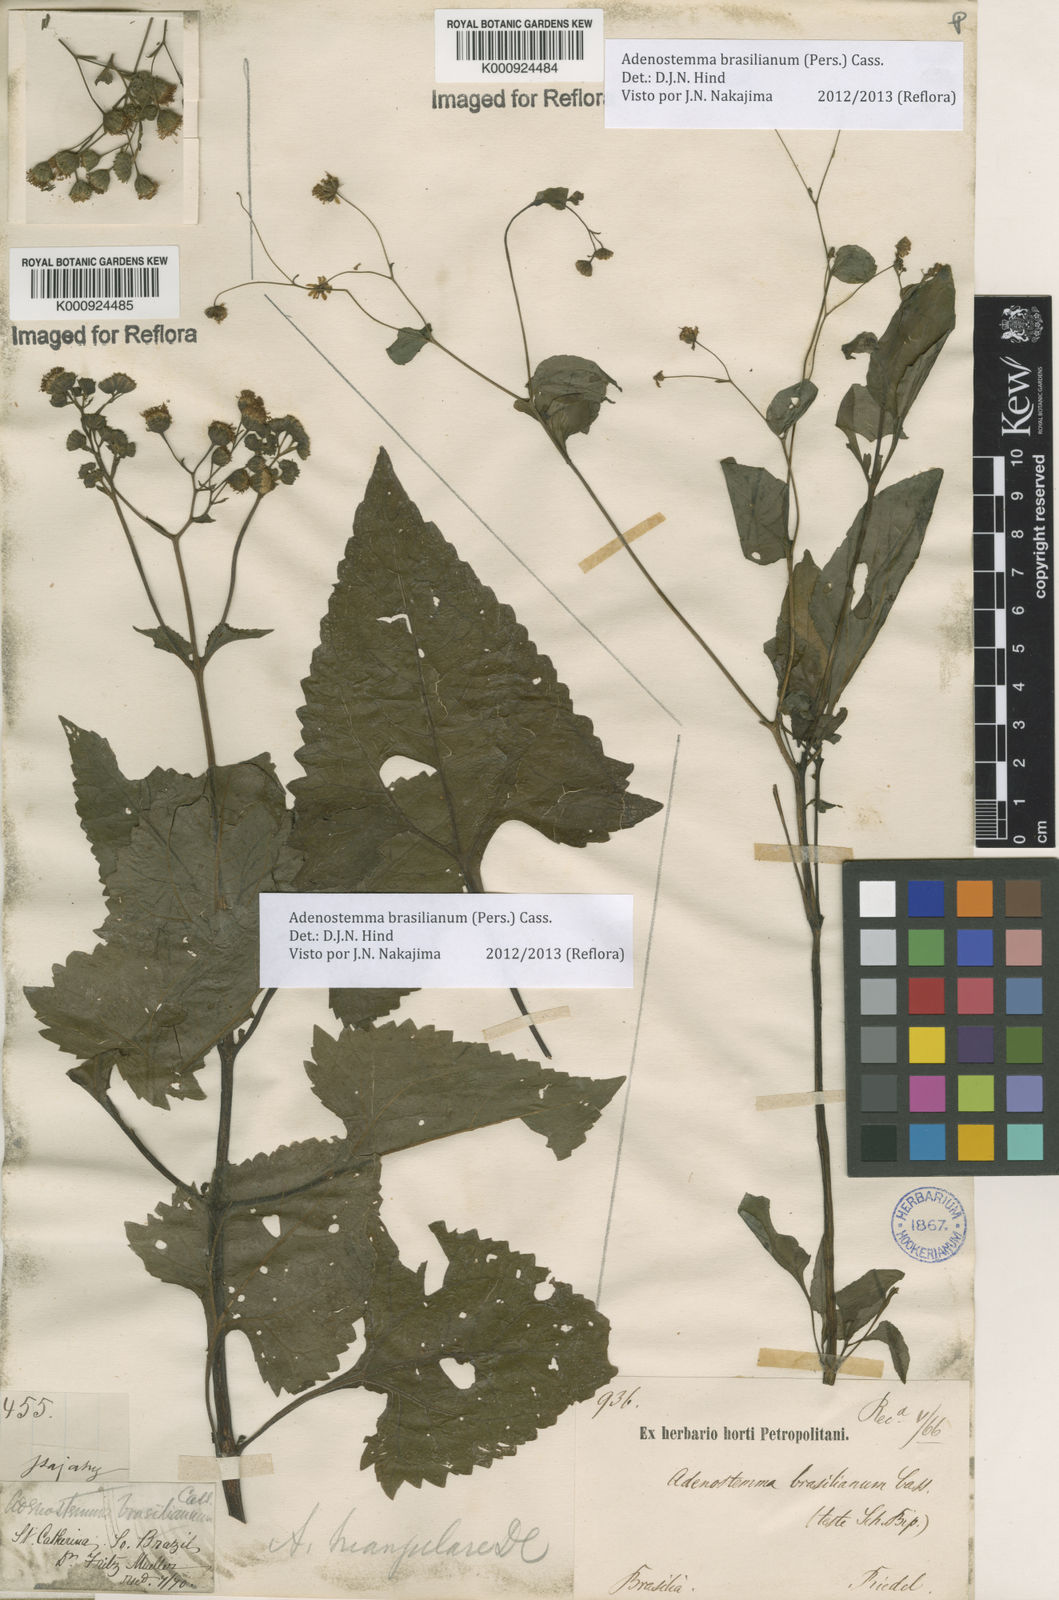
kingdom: Plantae
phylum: Tracheophyta
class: Magnoliopsida
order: Asterales
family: Asteraceae
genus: Adenostemma
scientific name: Adenostemma
